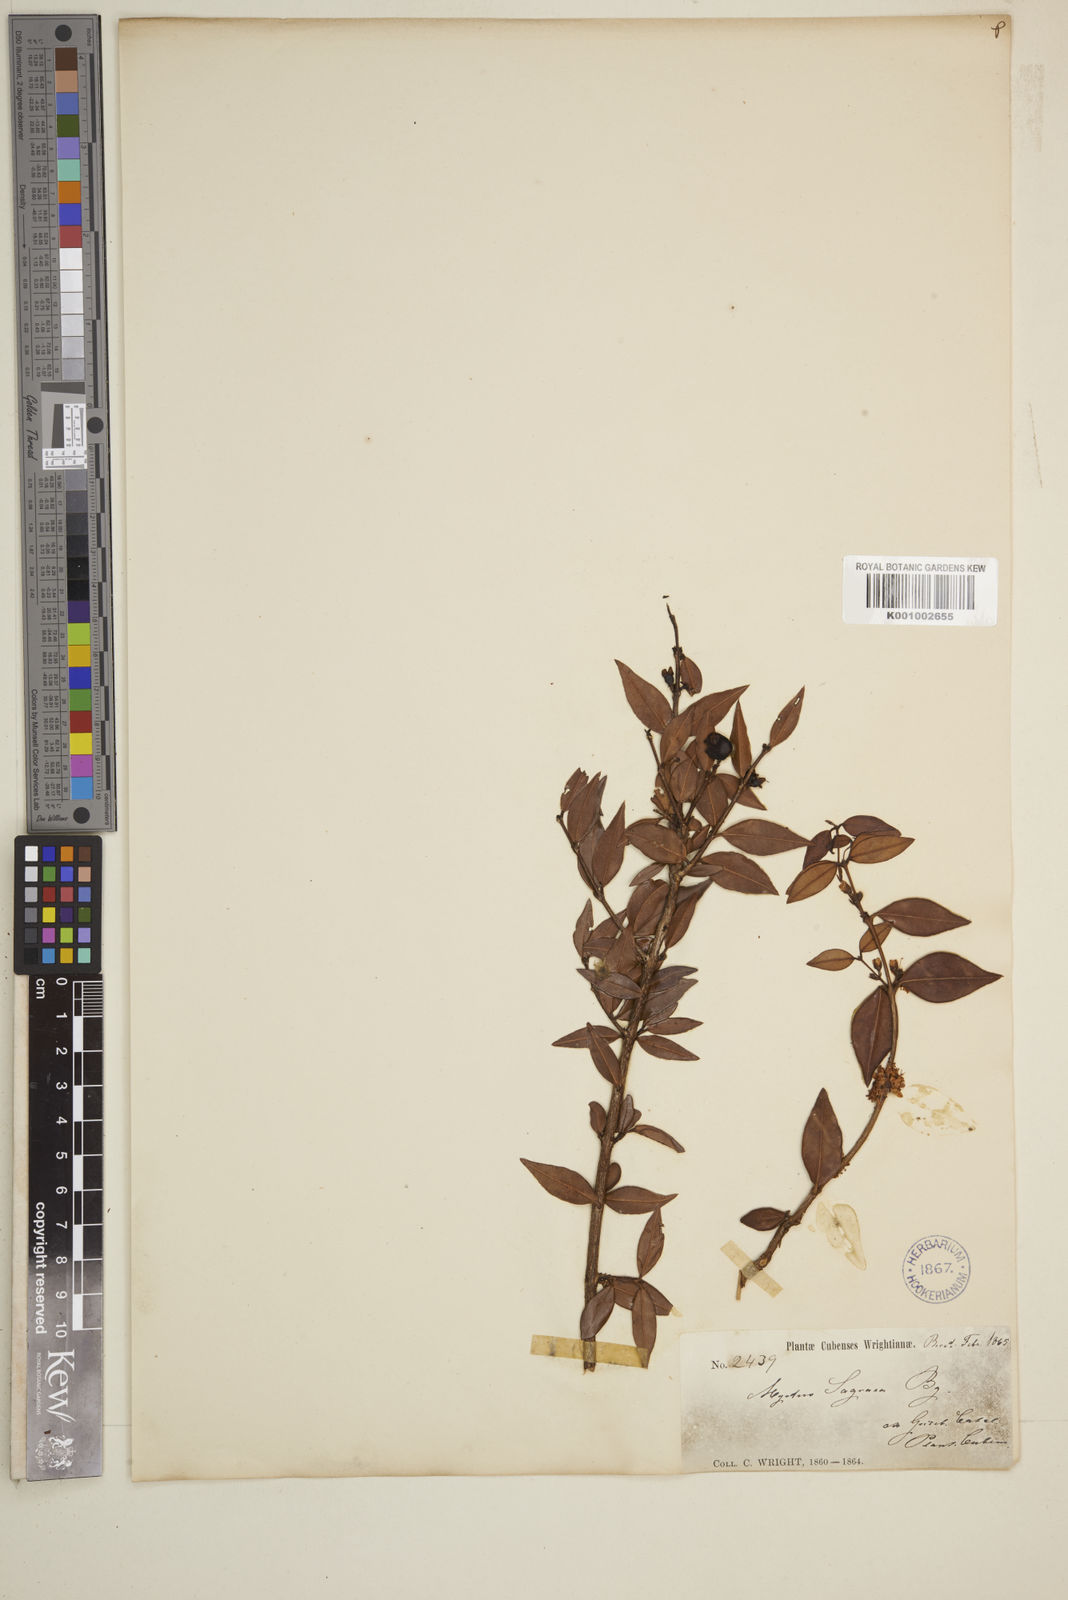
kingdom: Plantae
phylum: Tracheophyta
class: Magnoliopsida
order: Myrtales
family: Myrtaceae
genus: Eugenia
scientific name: Eugenia rimosa
